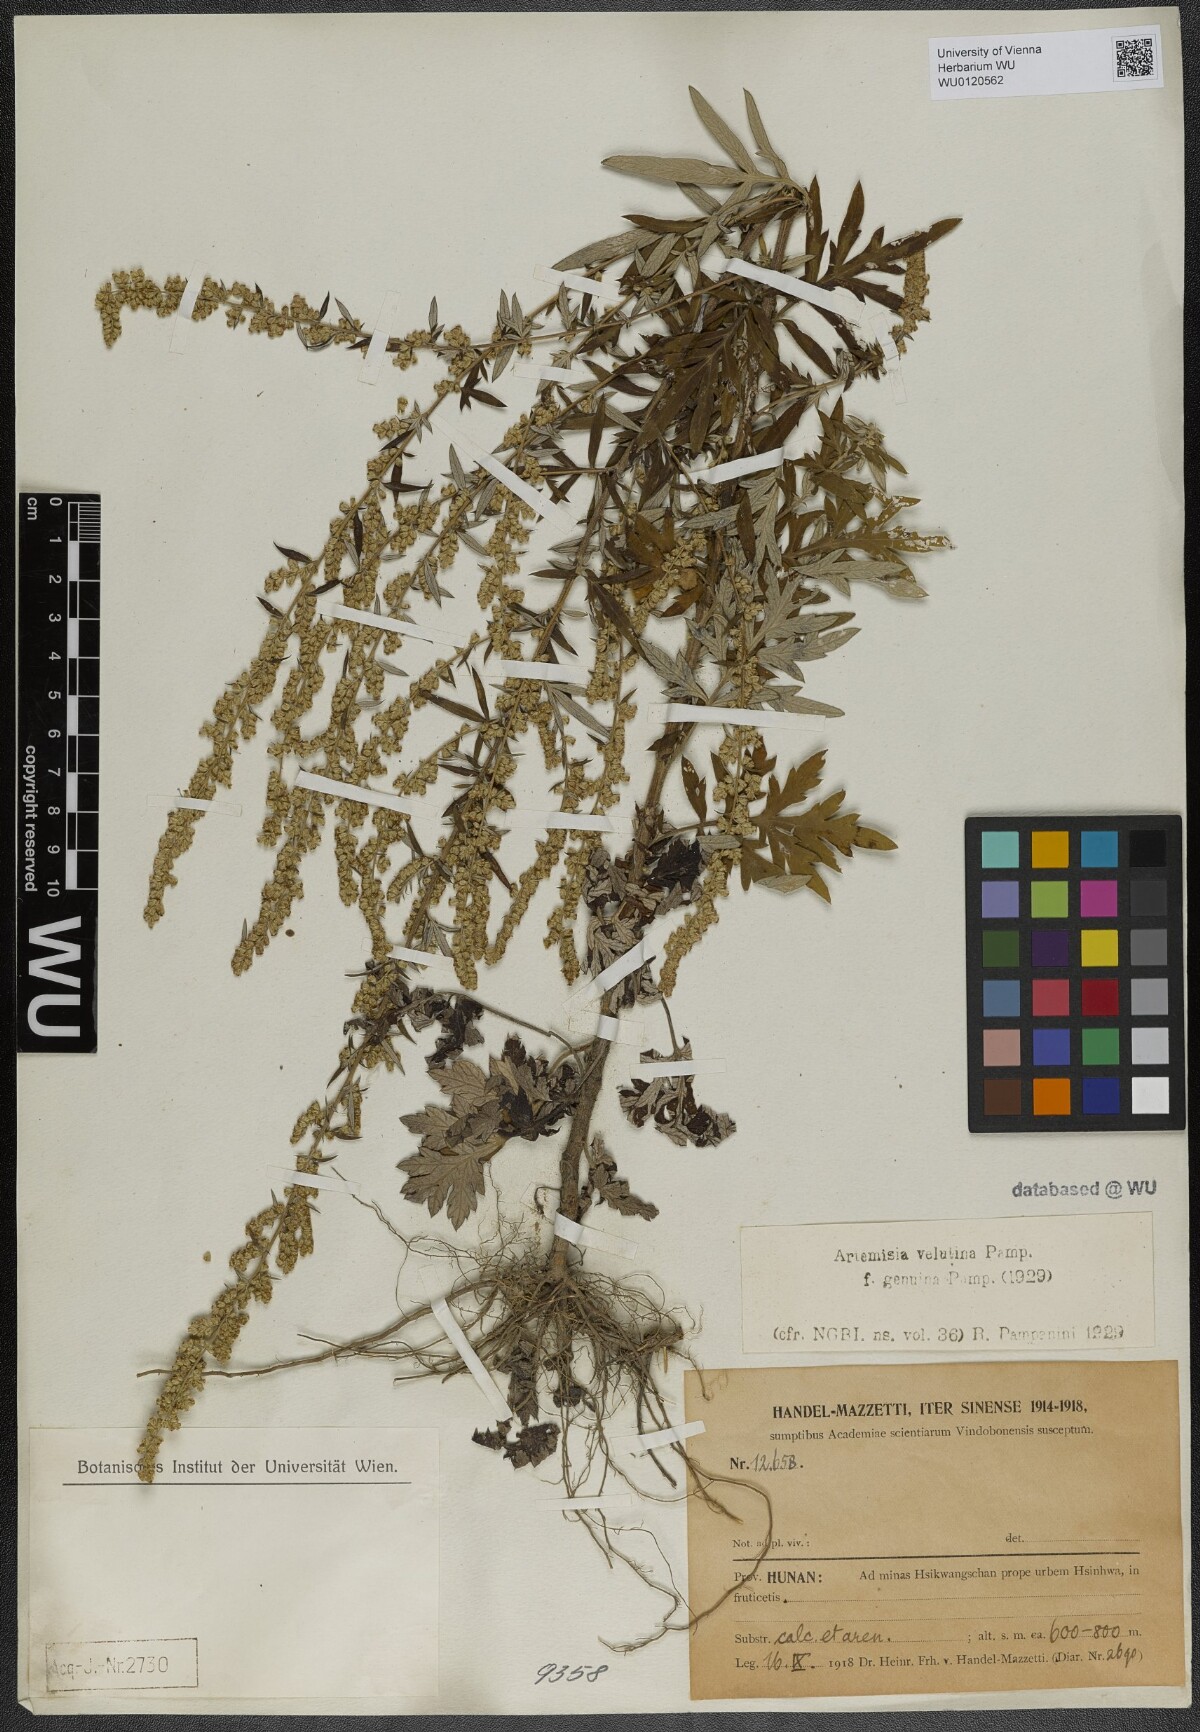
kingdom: Plantae
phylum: Tracheophyta
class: Magnoliopsida
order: Asterales
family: Asteraceae
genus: Artemisia
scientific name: Artemisia velutina
